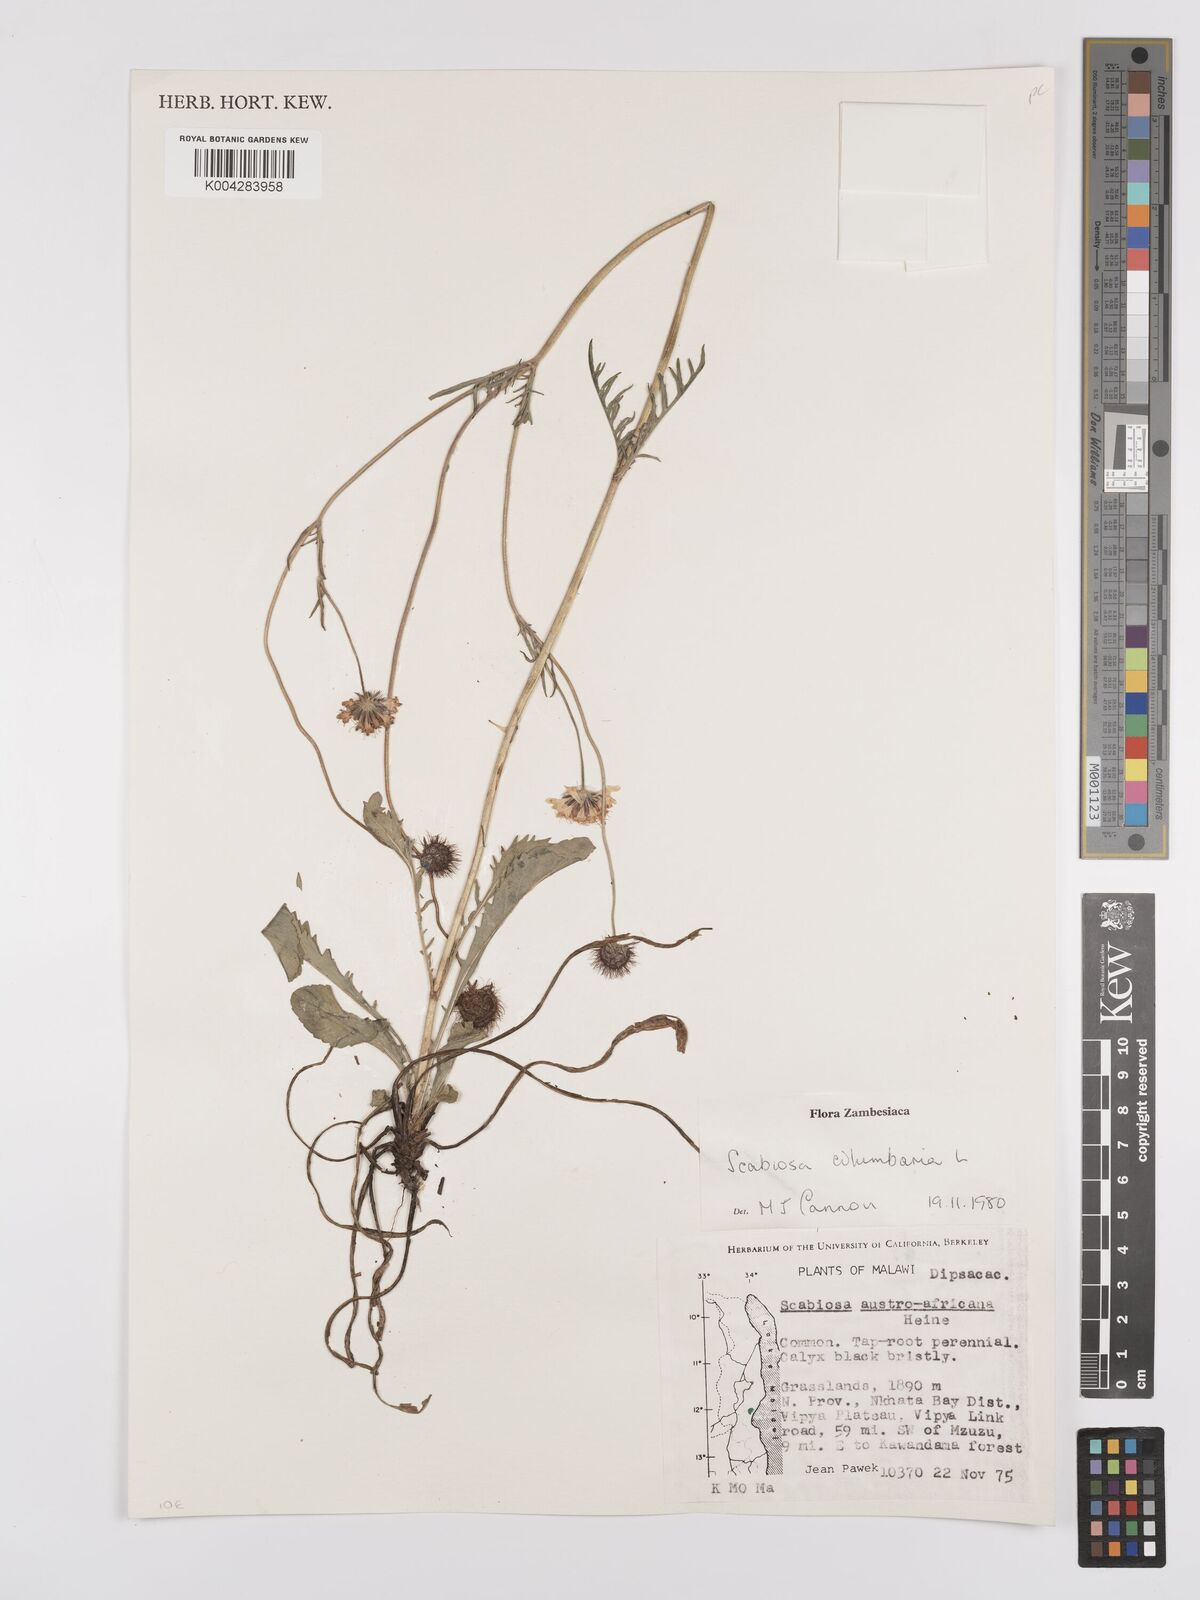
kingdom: Plantae
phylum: Tracheophyta
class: Magnoliopsida
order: Dipsacales
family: Caprifoliaceae
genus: Scabiosa
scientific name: Scabiosa austroafricana
